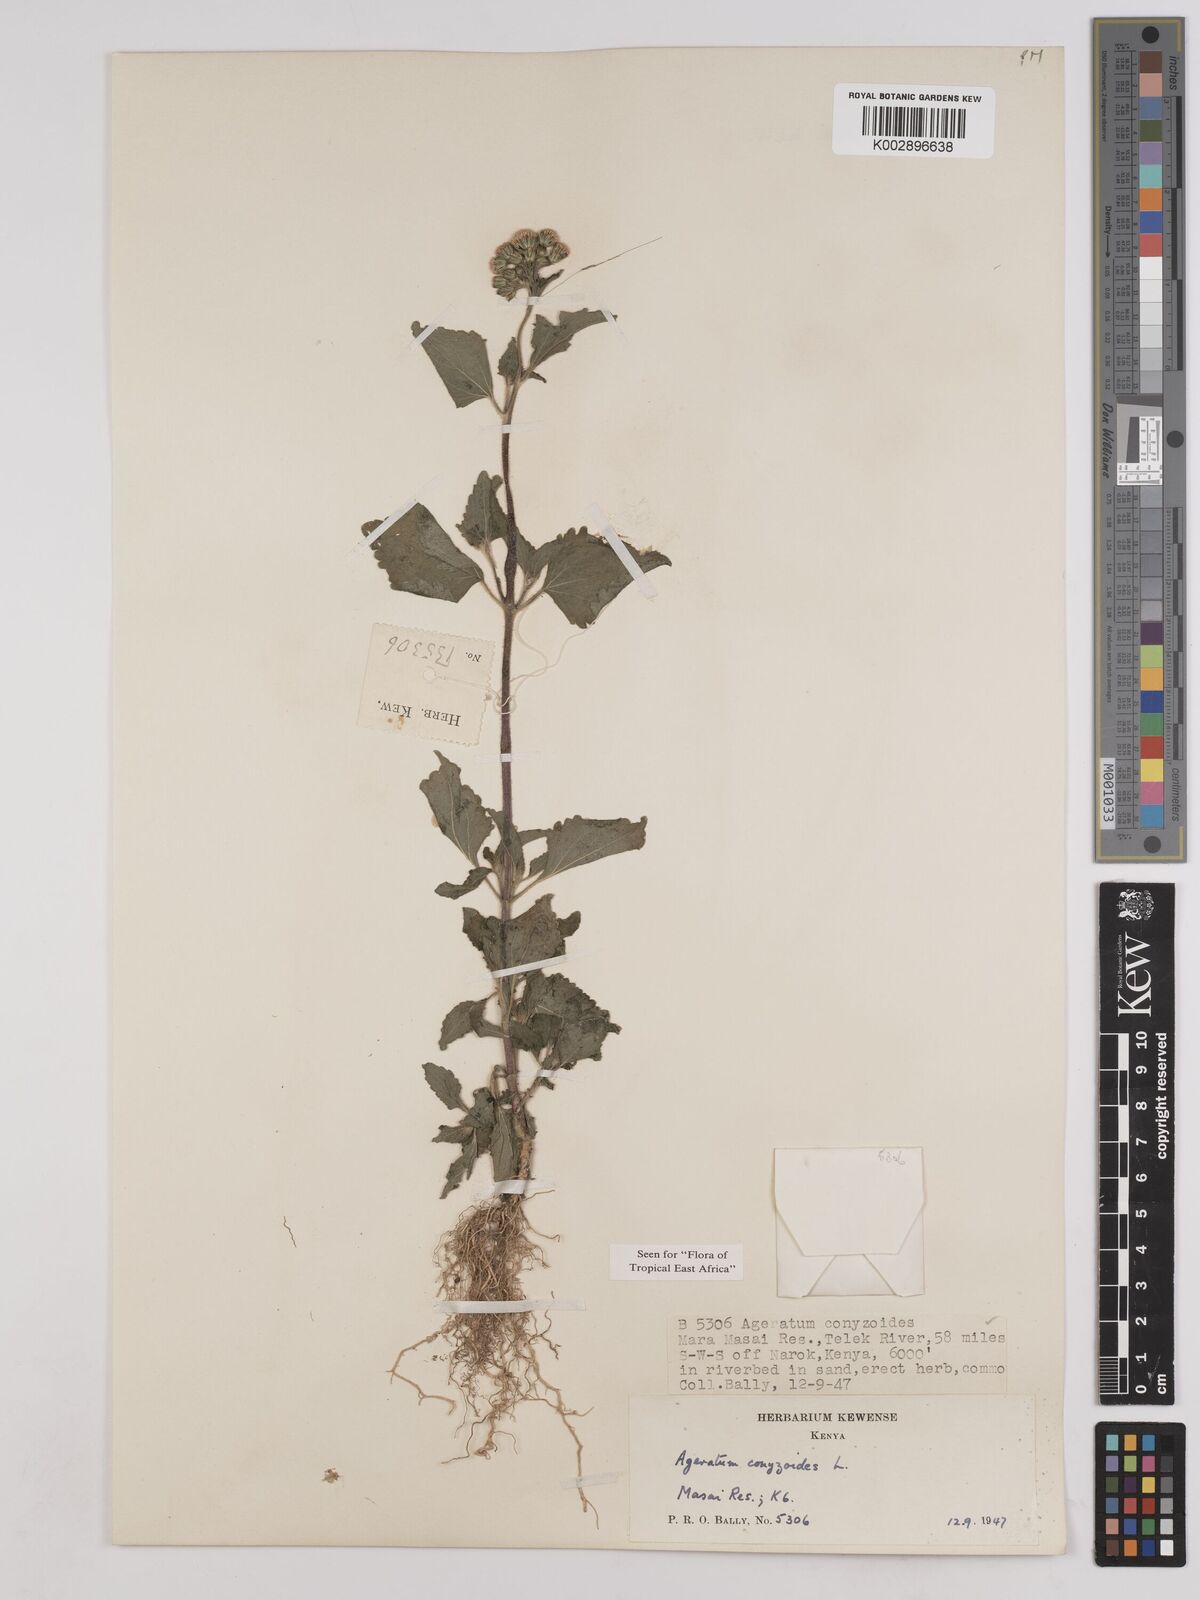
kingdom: Plantae
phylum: Tracheophyta
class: Magnoliopsida
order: Asterales
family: Asteraceae
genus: Ageratum
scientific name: Ageratum conyzoides
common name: Tropical whiteweed
